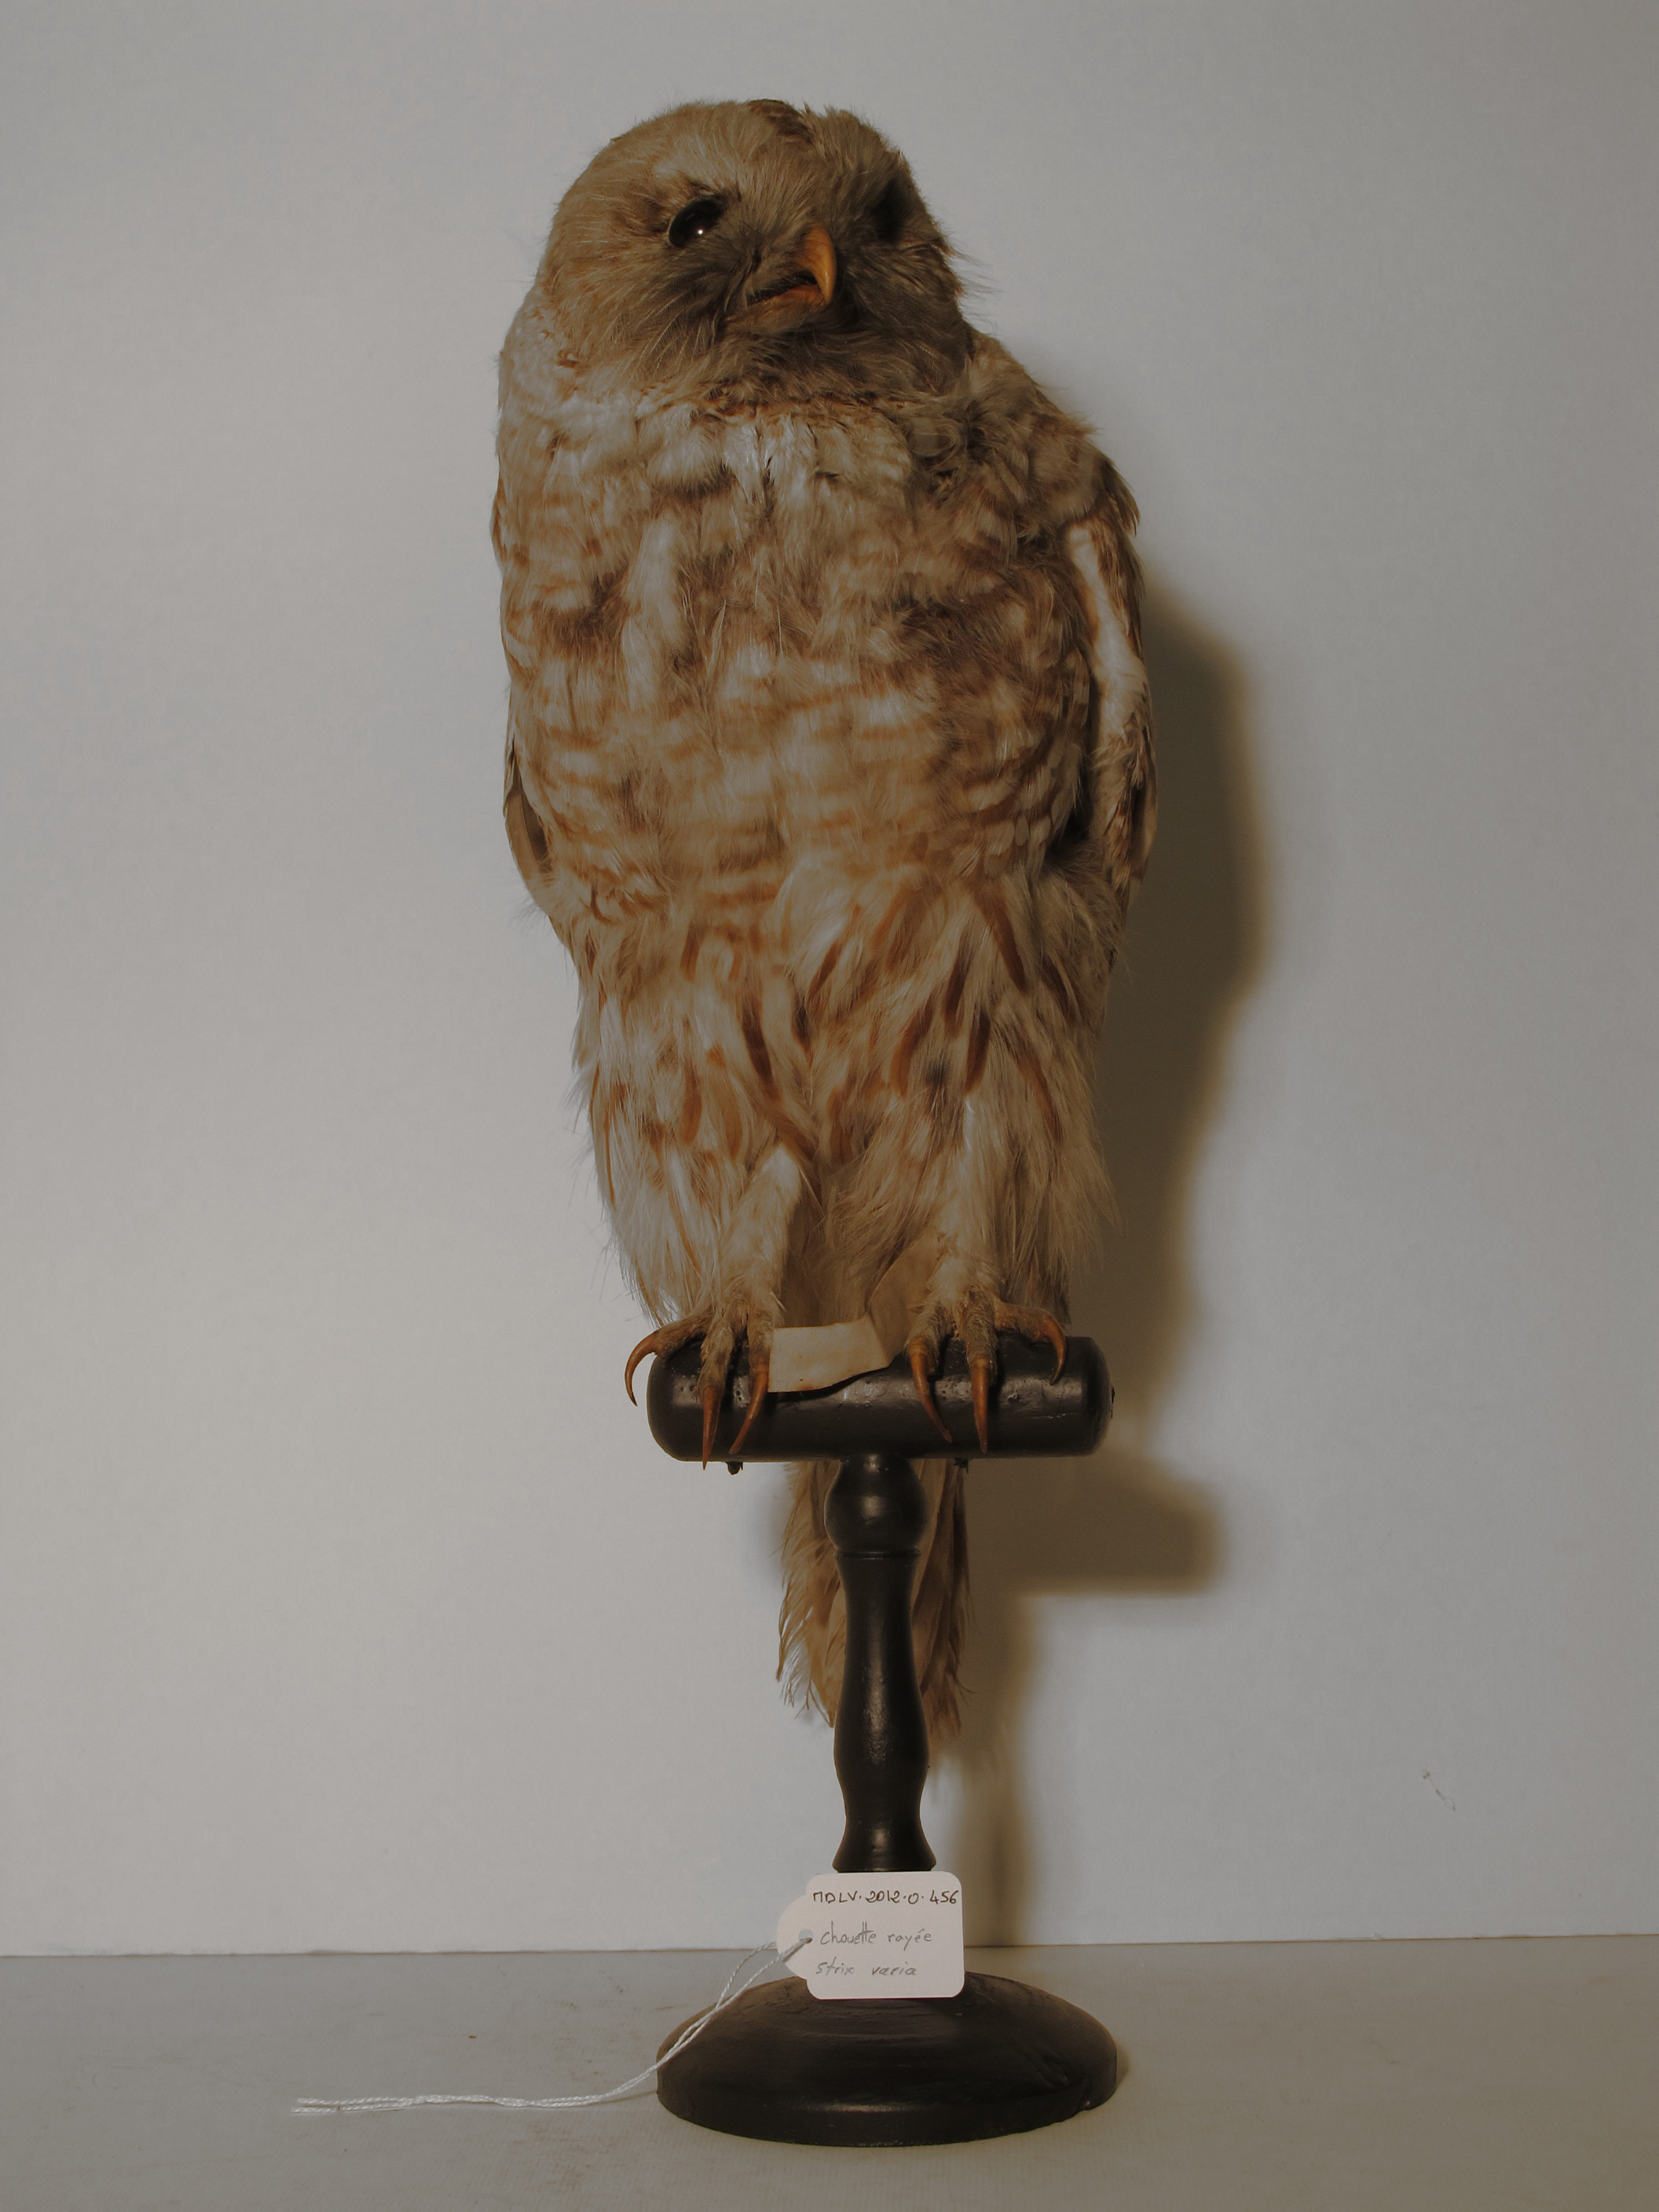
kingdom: Animalia
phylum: Chordata
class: Aves
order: Strigiformes
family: Strigidae
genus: Strix
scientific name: Strix varia
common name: Barred Owl
